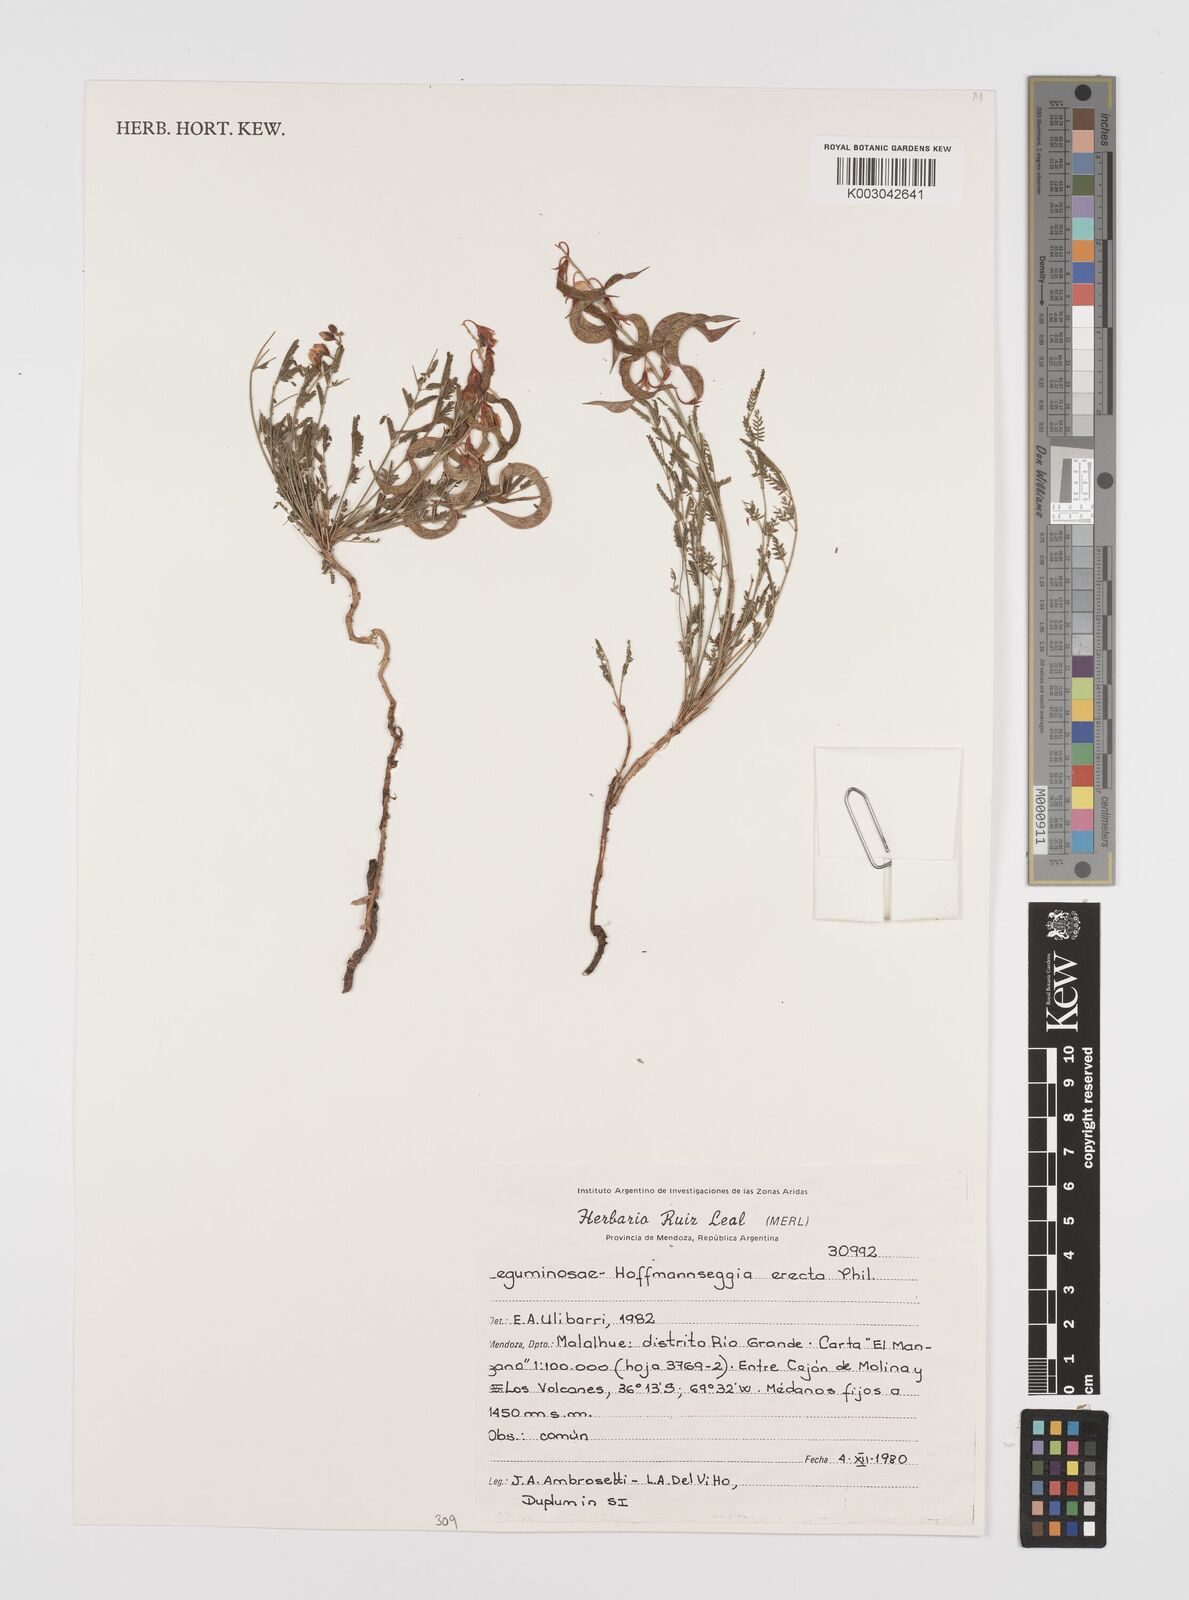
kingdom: Plantae
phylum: Tracheophyta
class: Magnoliopsida
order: Fabales
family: Fabaceae
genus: Hoffmannseggia
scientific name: Hoffmannseggia erecta
